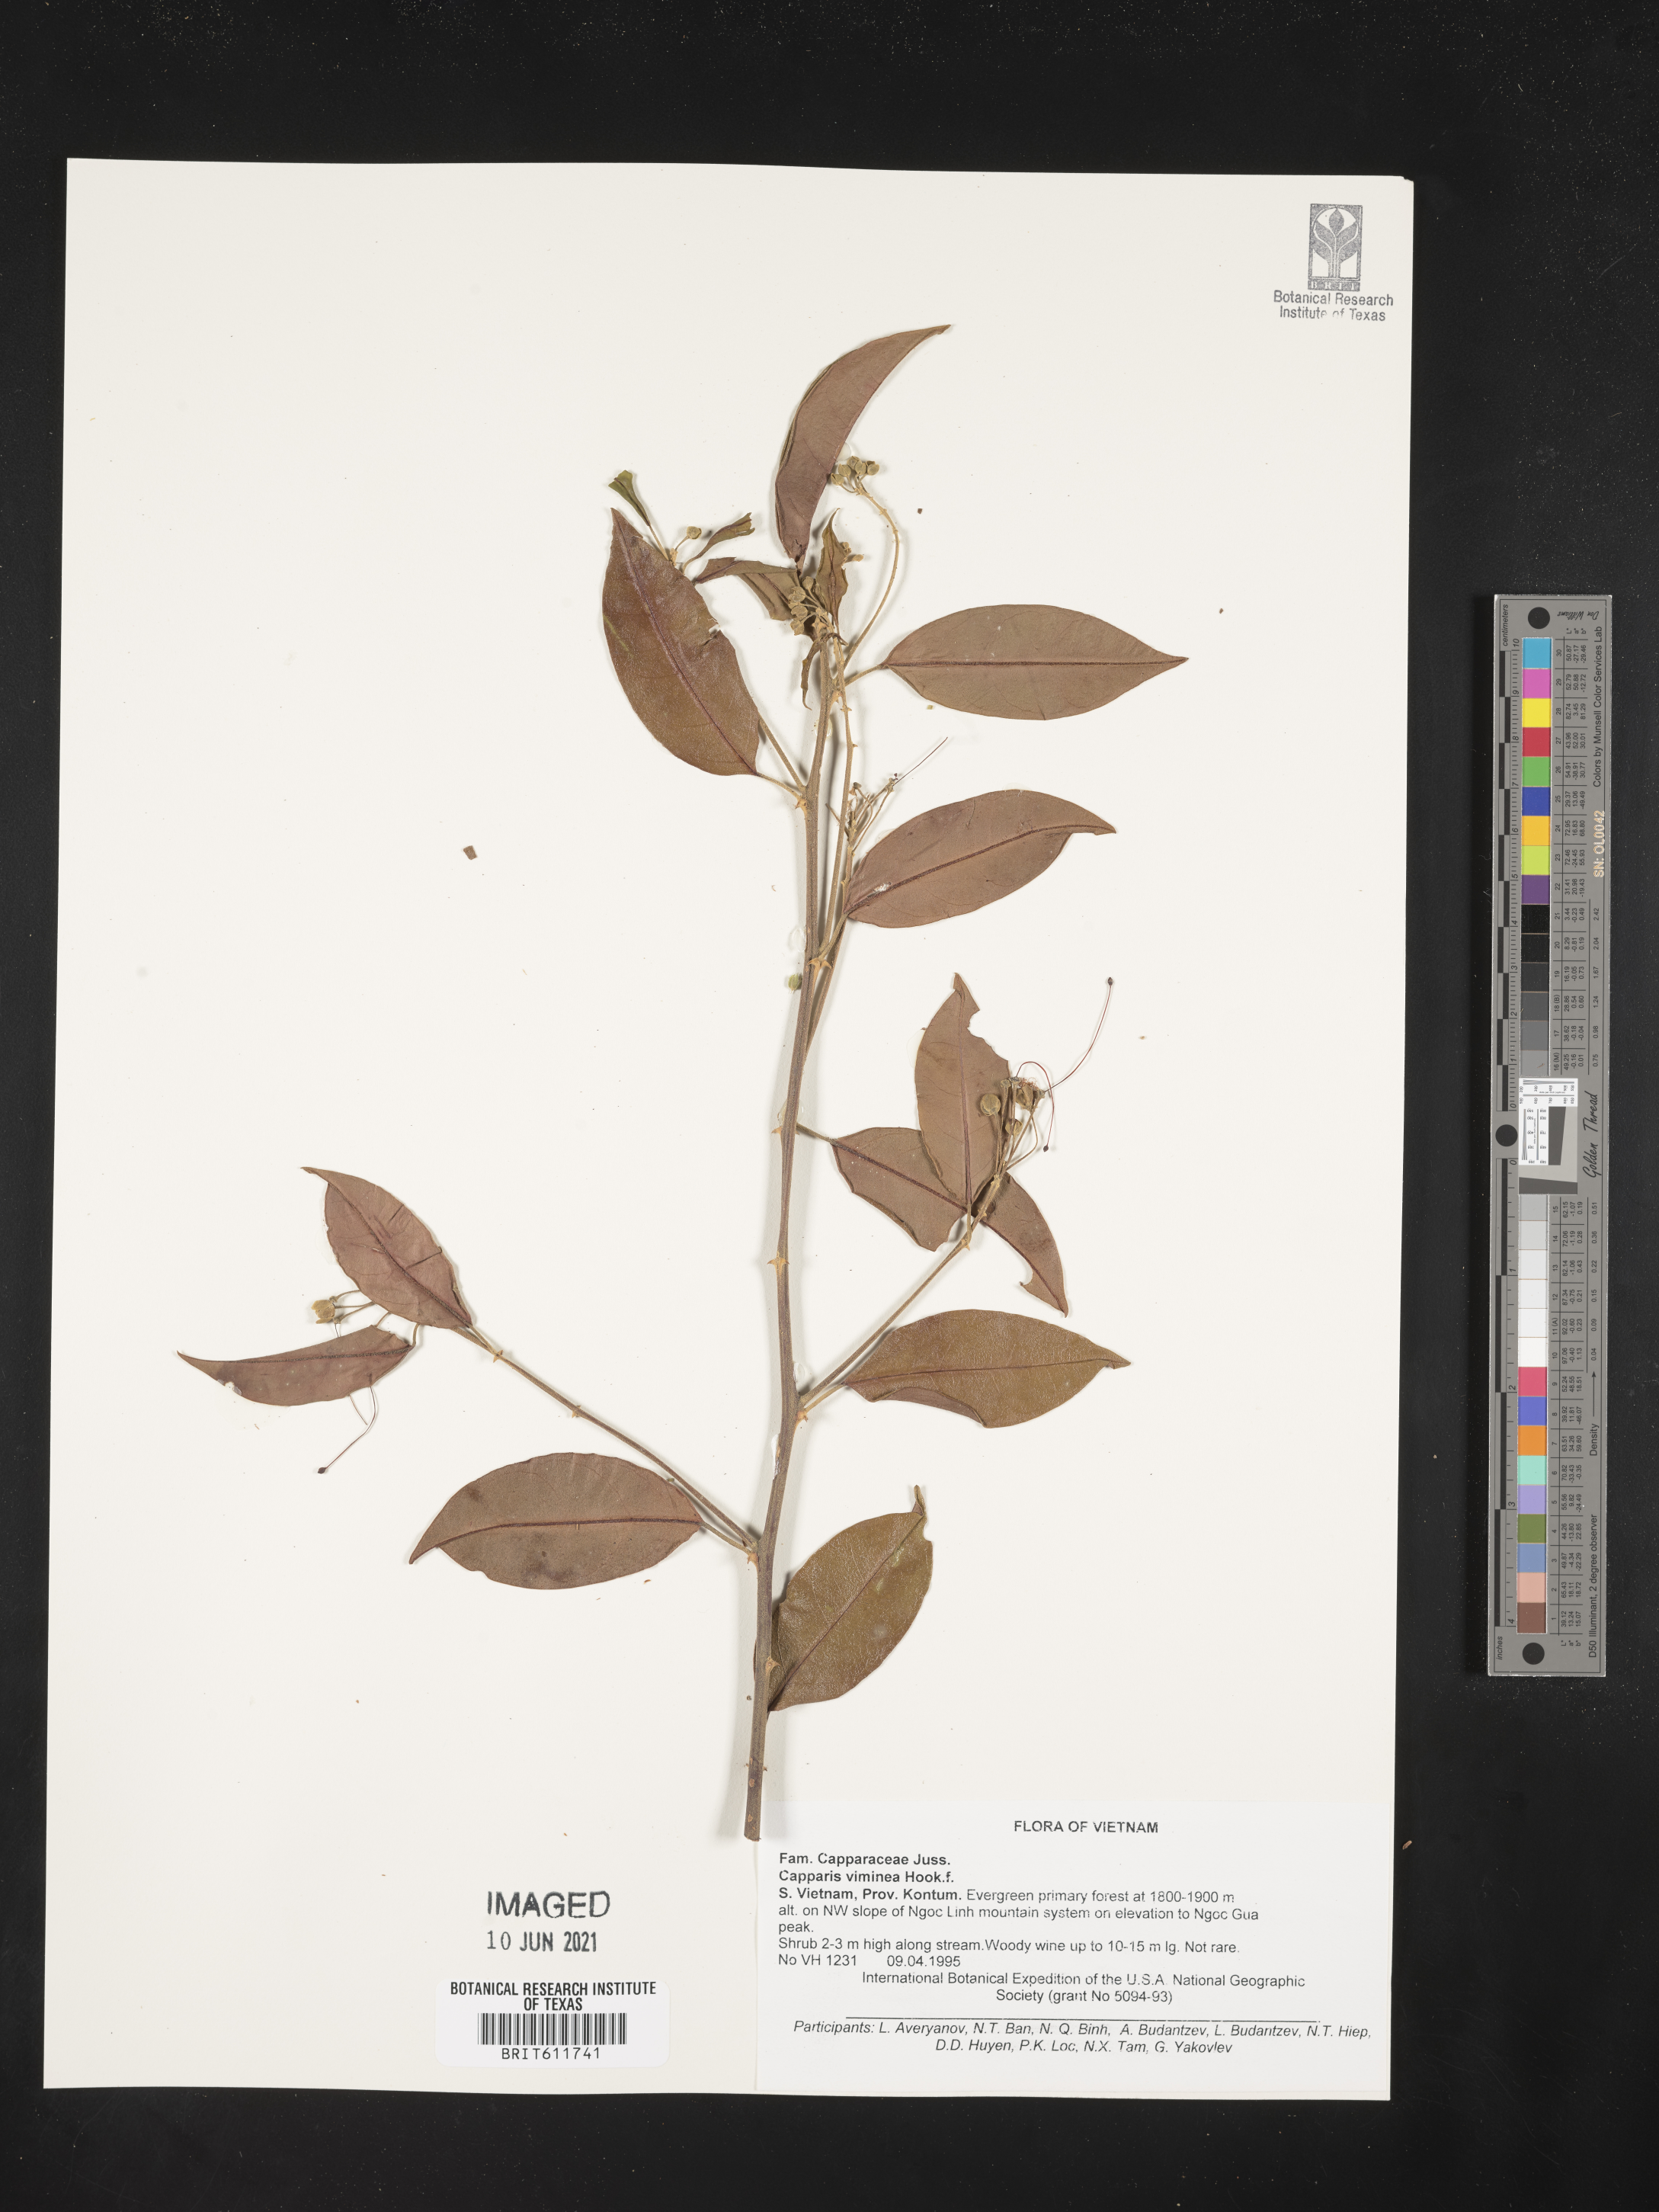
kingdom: Plantae
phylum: Tracheophyta
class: Magnoliopsida
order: Brassicales
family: Capparaceae
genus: Capparis
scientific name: Capparis viminea
